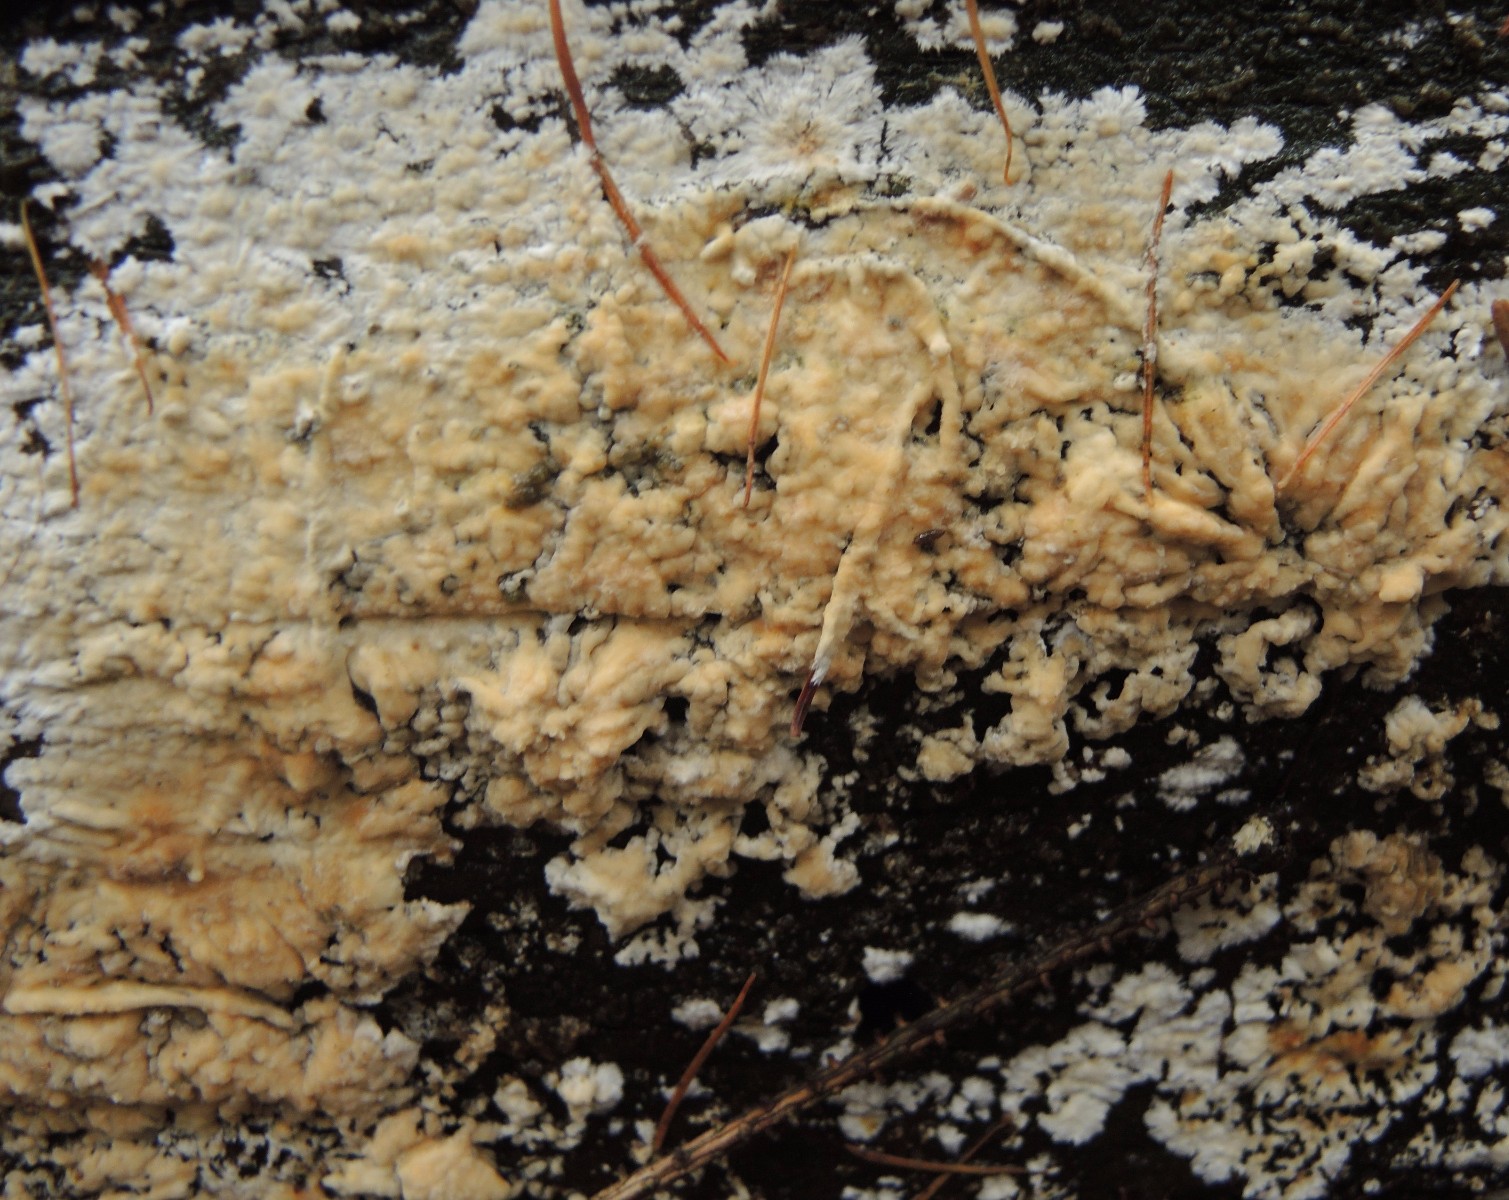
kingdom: Fungi
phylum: Basidiomycota
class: Agaricomycetes
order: Russulales
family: Peniophoraceae
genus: Gloiothele
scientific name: Gloiothele citrina
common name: citronskorpe
